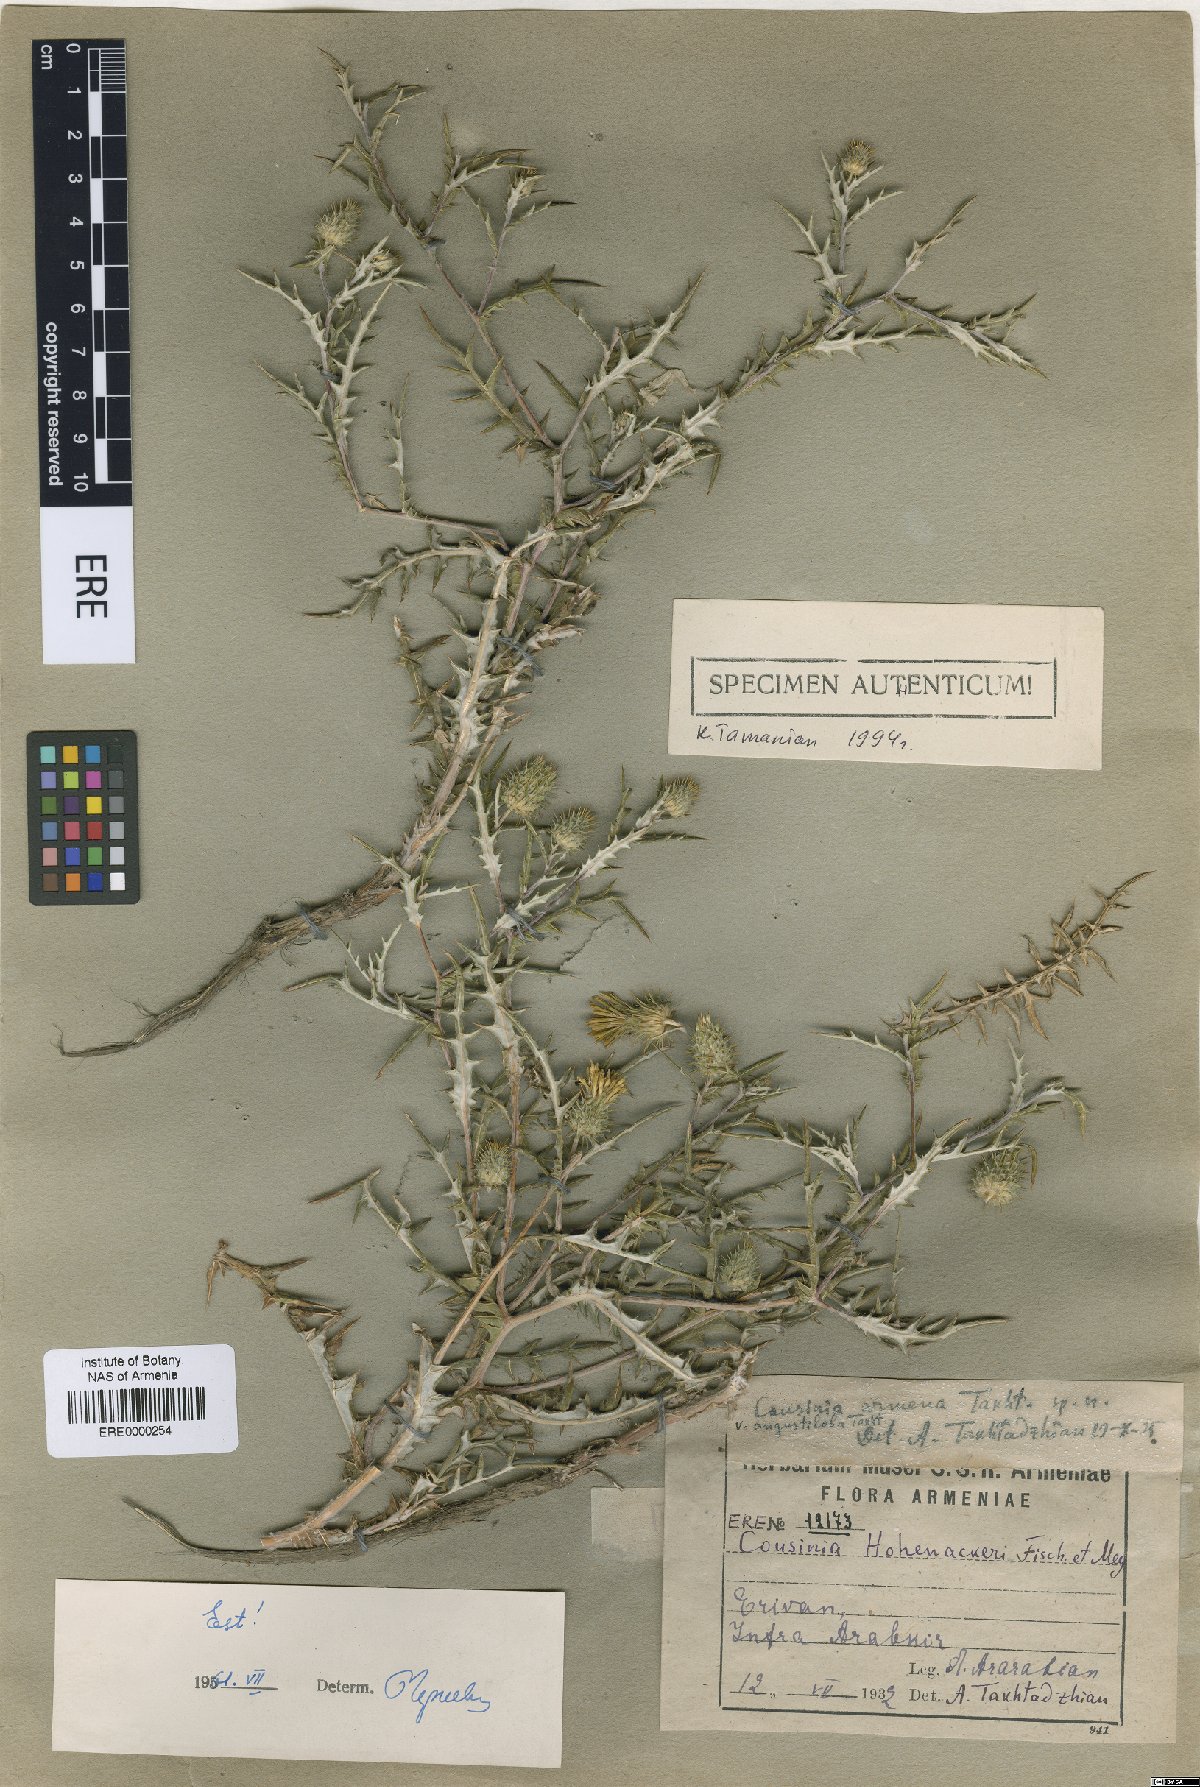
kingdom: Plantae
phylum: Tracheophyta
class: Magnoliopsida
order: Asterales
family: Asteraceae
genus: Cousinia
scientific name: Cousinia armena
